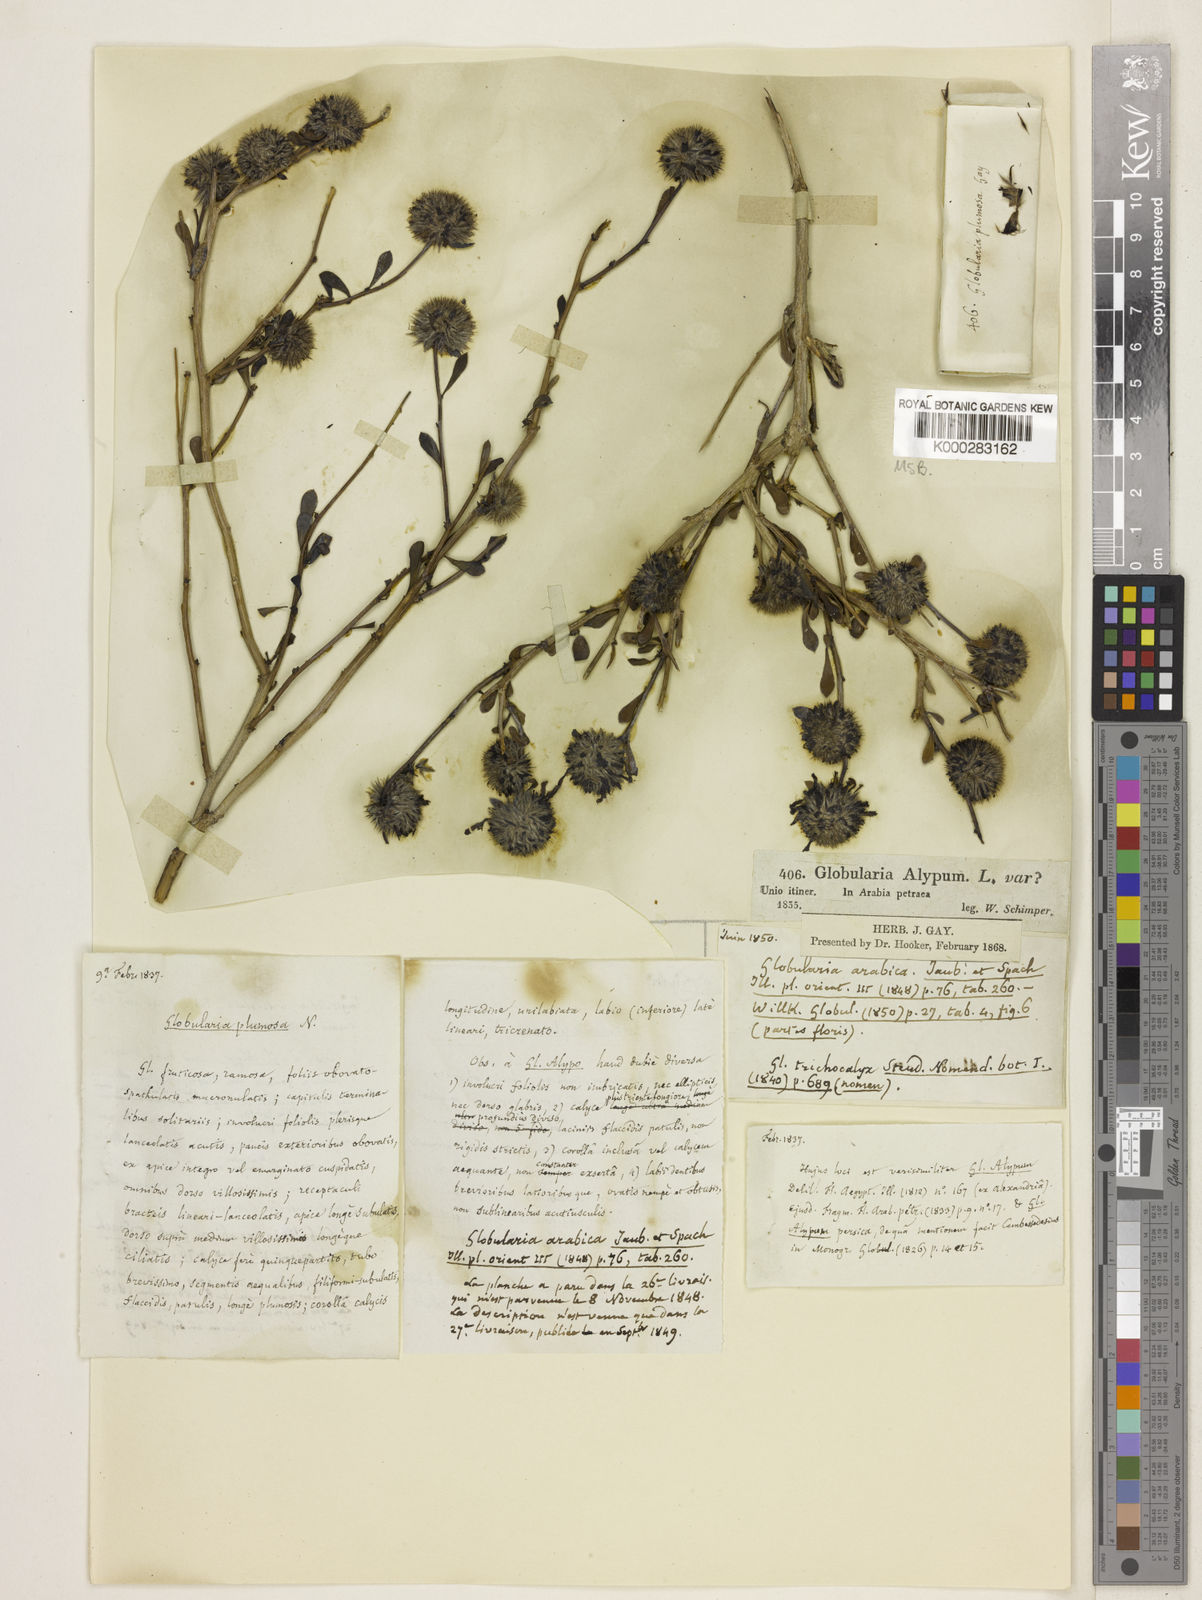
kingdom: Plantae
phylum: Tracheophyta
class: Magnoliopsida
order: Lamiales
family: Plantaginaceae
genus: Globularia
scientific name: Globularia arabica
